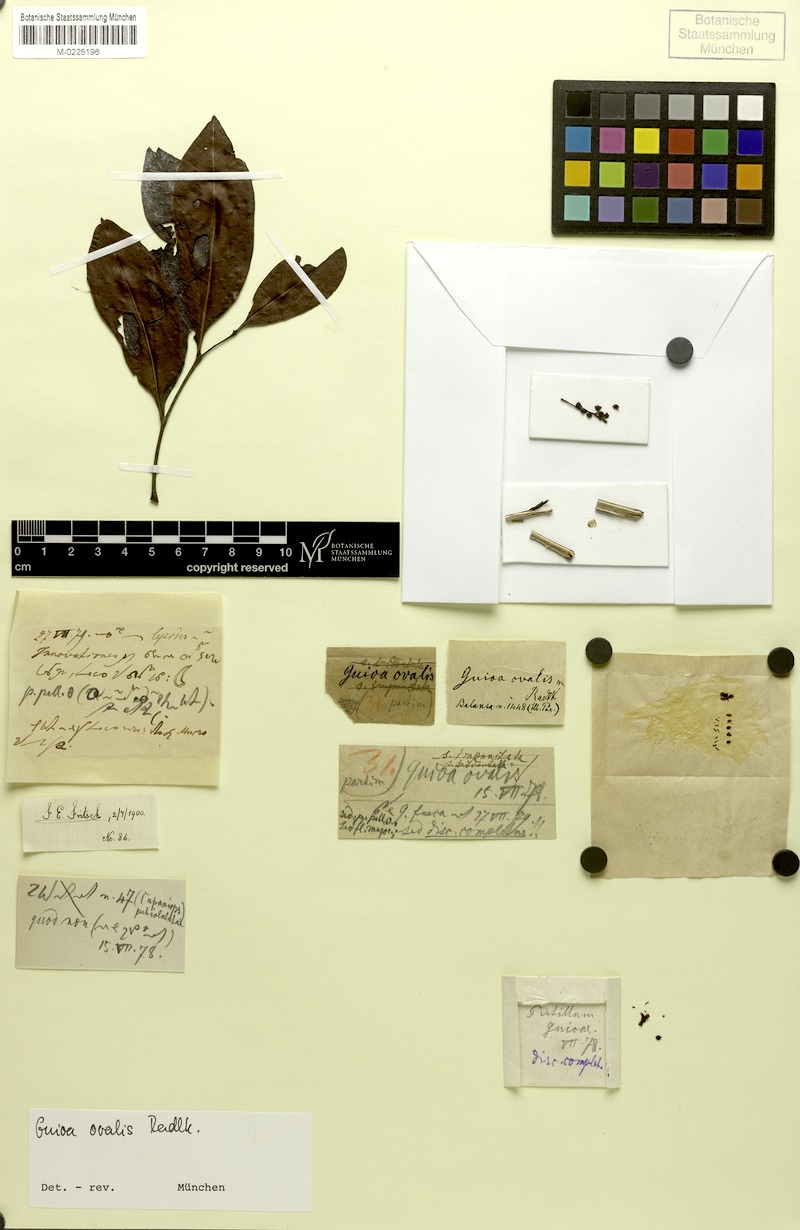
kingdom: Plantae
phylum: Tracheophyta
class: Magnoliopsida
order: Sapindales
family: Sapindaceae
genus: Guioa
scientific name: Guioa ovalis
